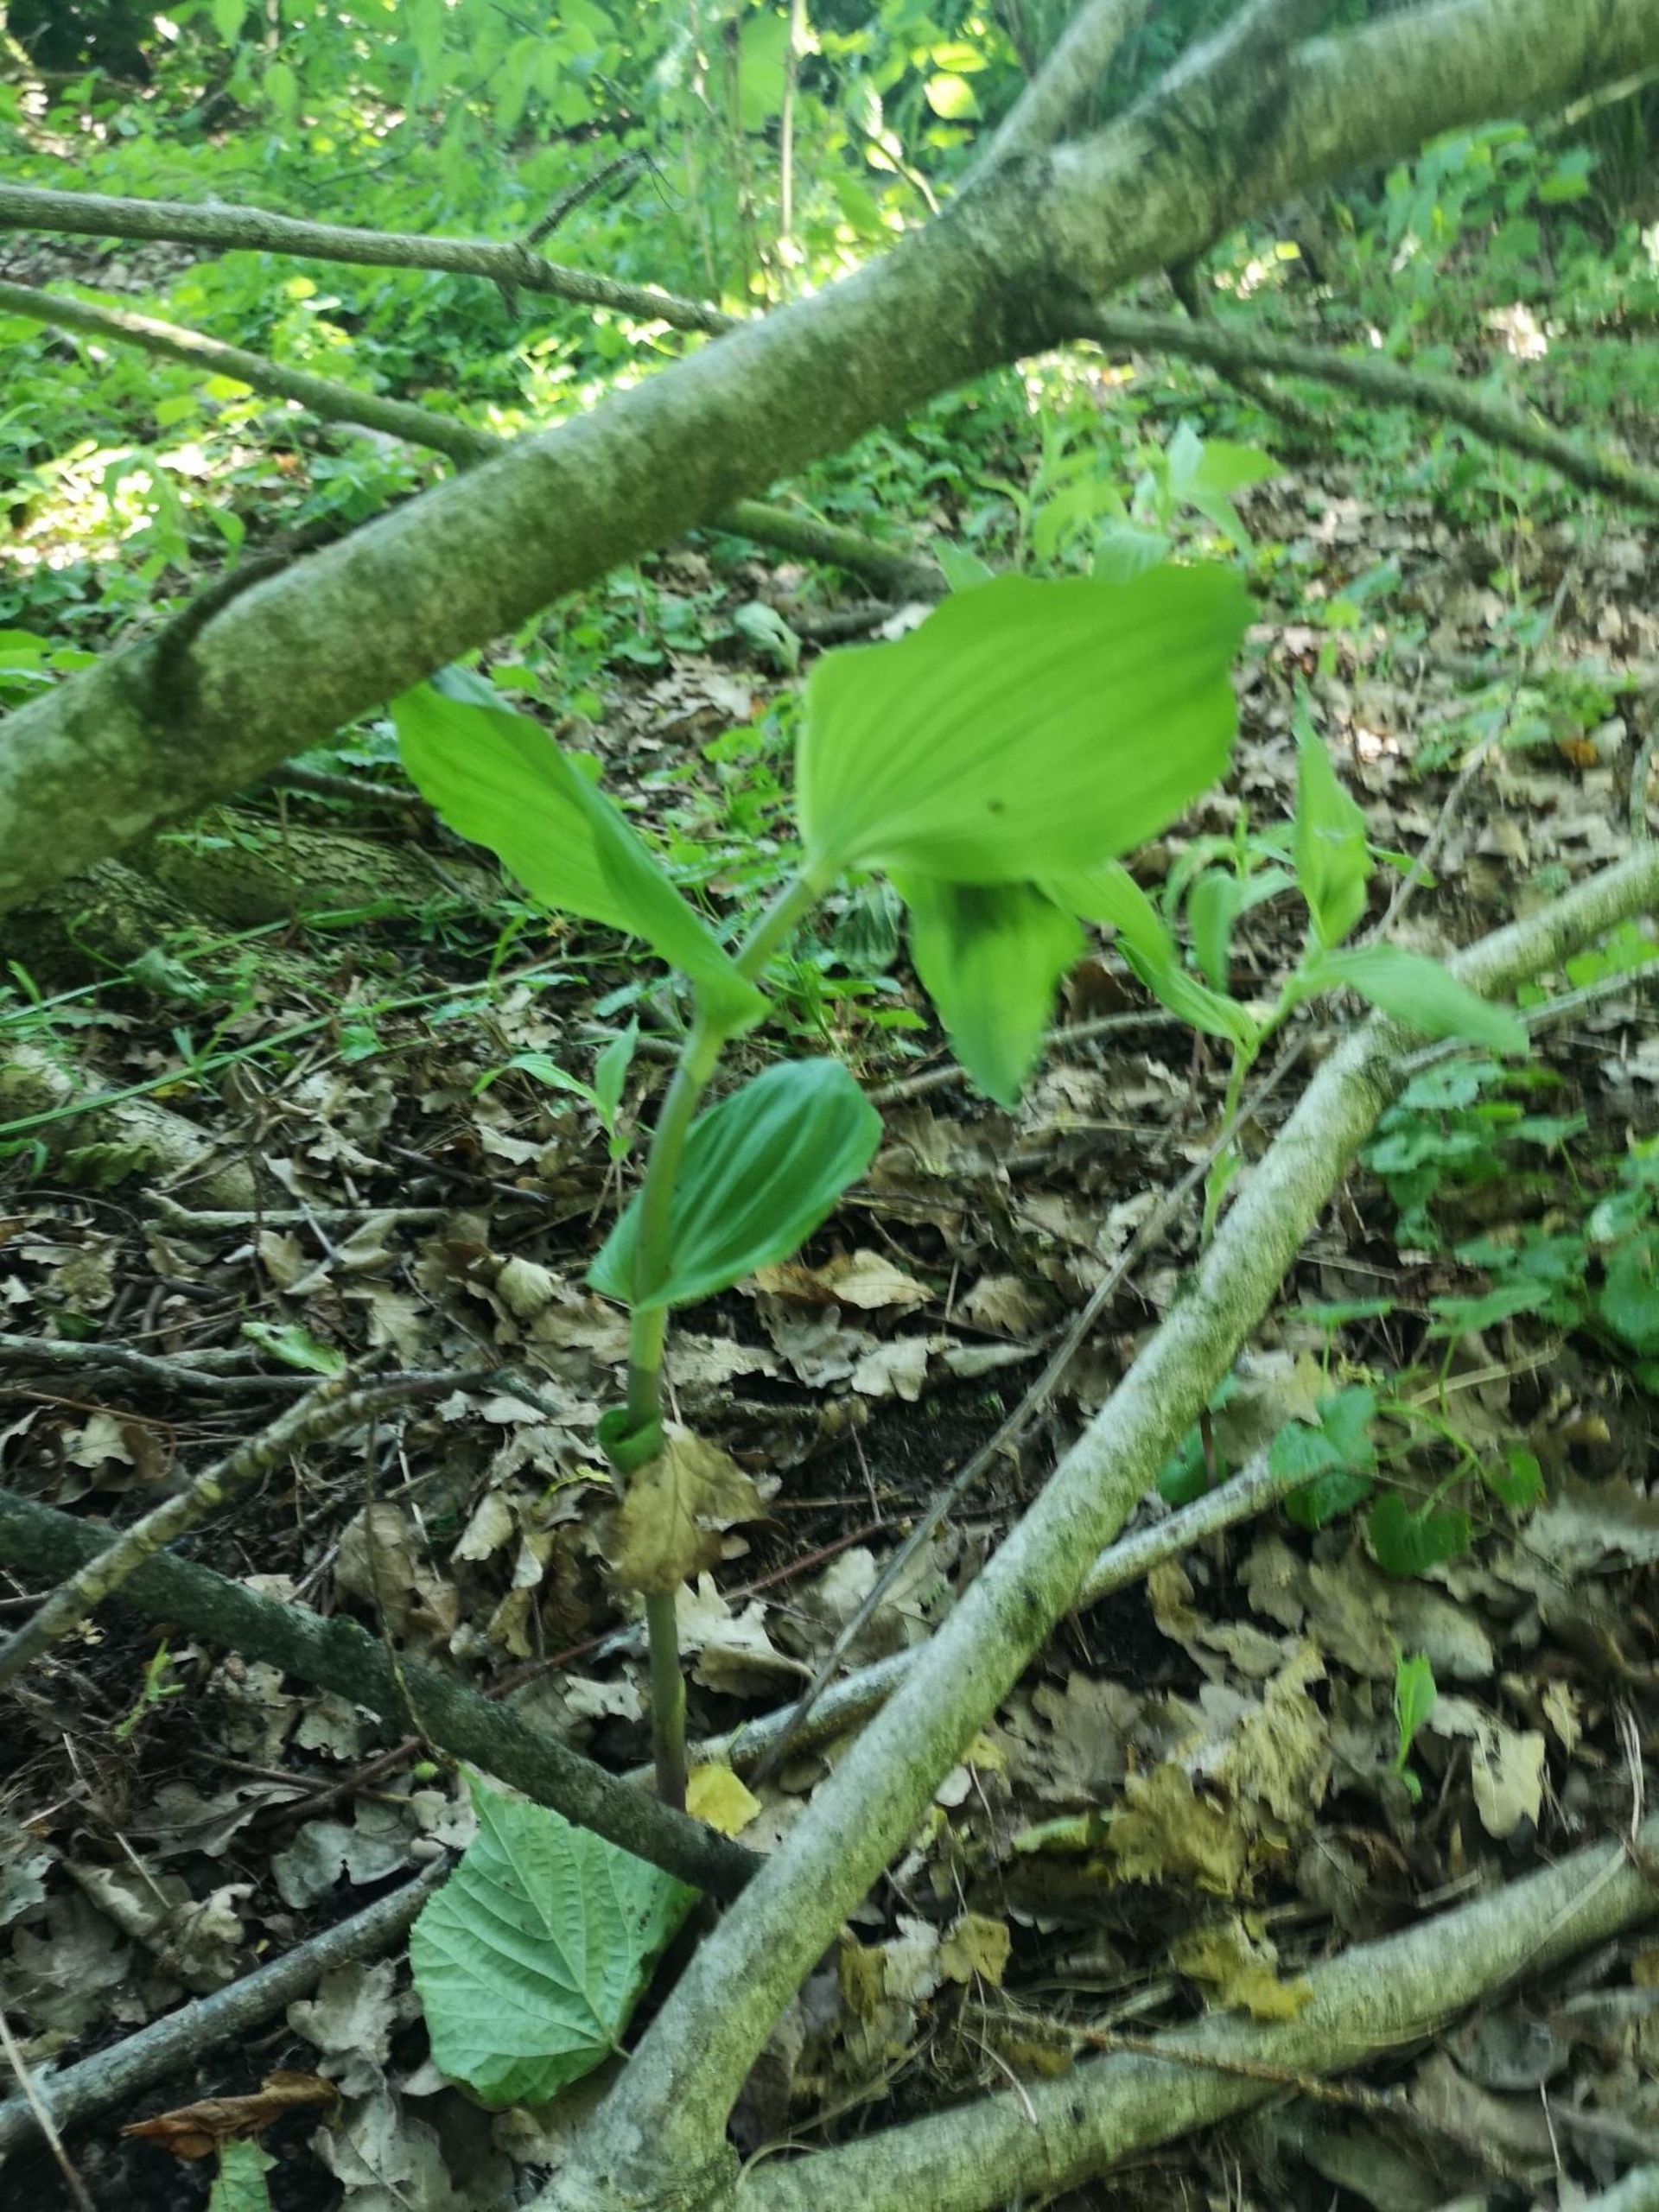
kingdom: Plantae
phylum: Tracheophyta
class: Liliopsida
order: Asparagales
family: Orchidaceae
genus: Epipactis
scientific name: Epipactis helleborine
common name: Skov-hullæbe
